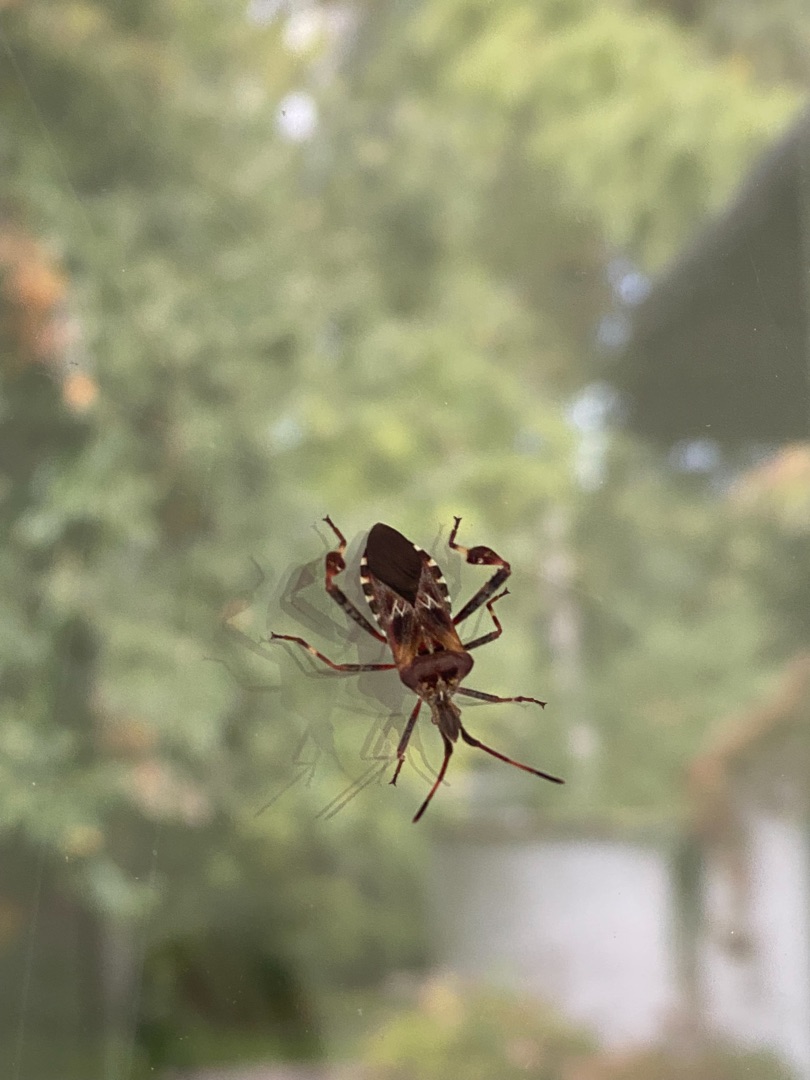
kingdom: Animalia
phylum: Arthropoda
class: Insecta
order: Hemiptera
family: Coreidae
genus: Leptoglossus
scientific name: Leptoglossus occidentalis
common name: Amerikansk fyrretæge
